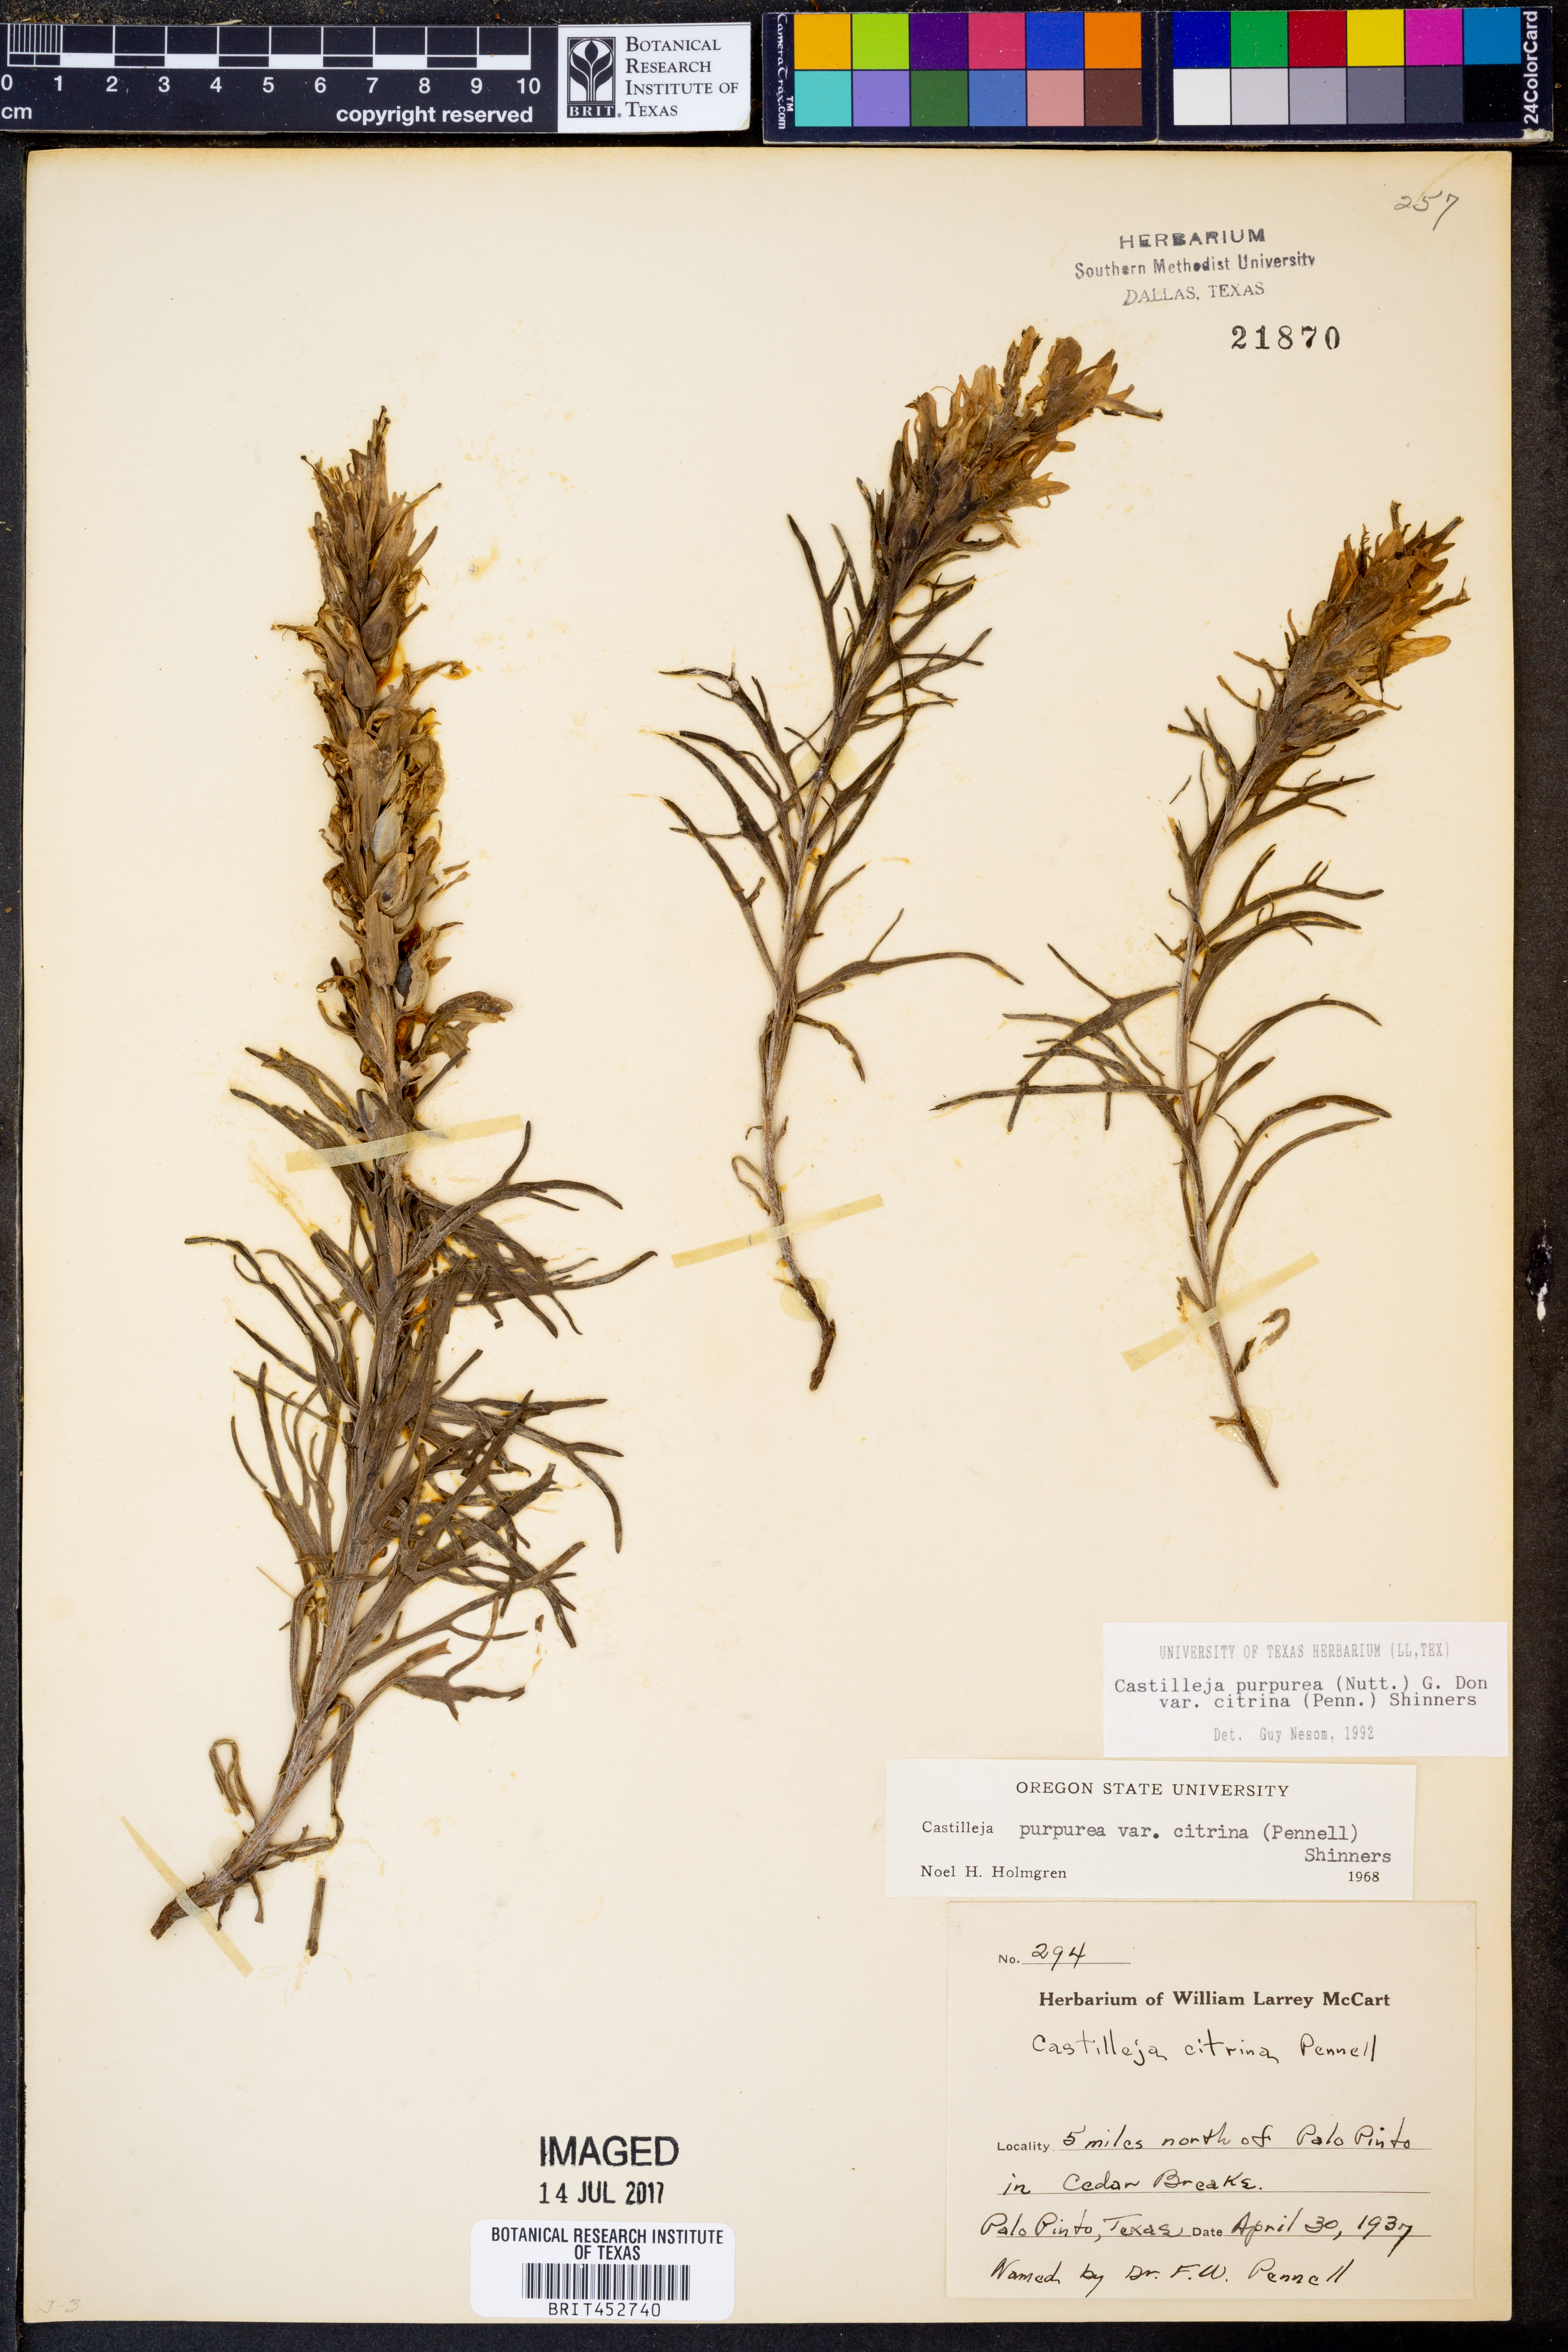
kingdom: Plantae
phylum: Tracheophyta
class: Magnoliopsida
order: Lamiales
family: Orobanchaceae
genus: Castilleja
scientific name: Castilleja citrina
